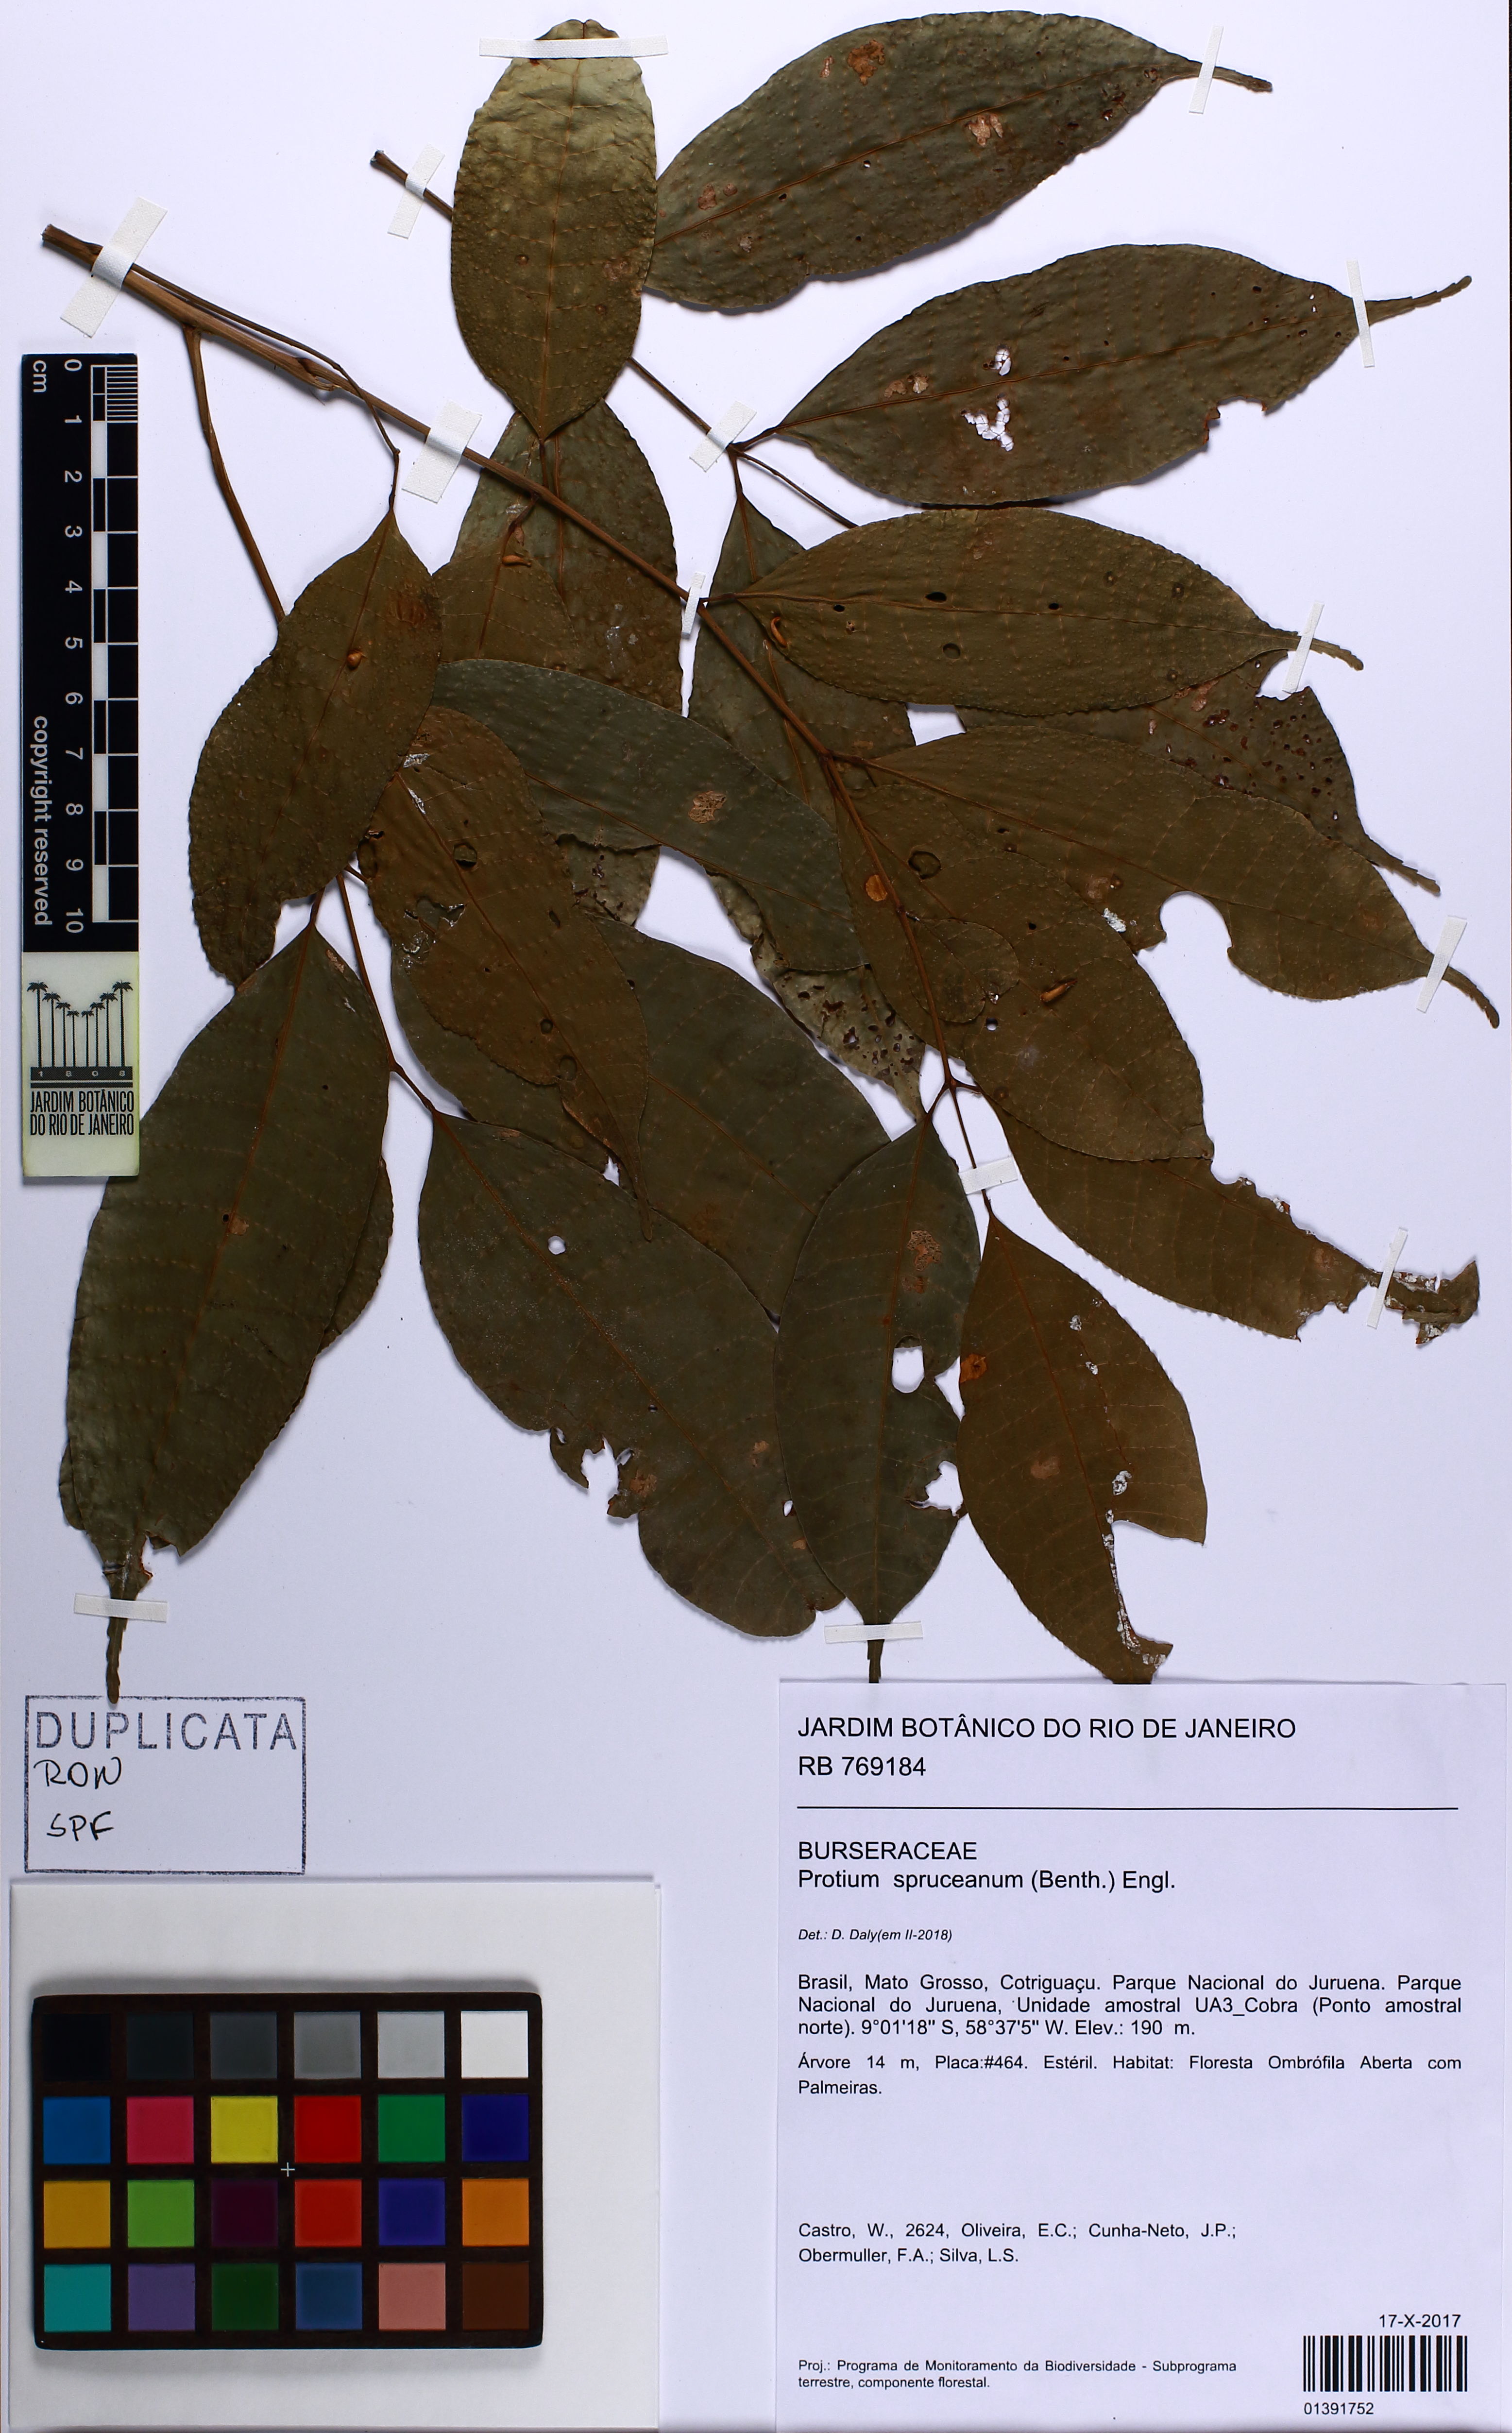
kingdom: Plantae
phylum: Tracheophyta
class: Magnoliopsida
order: Sapindales
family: Burseraceae
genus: Protium
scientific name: Protium spruceanum
